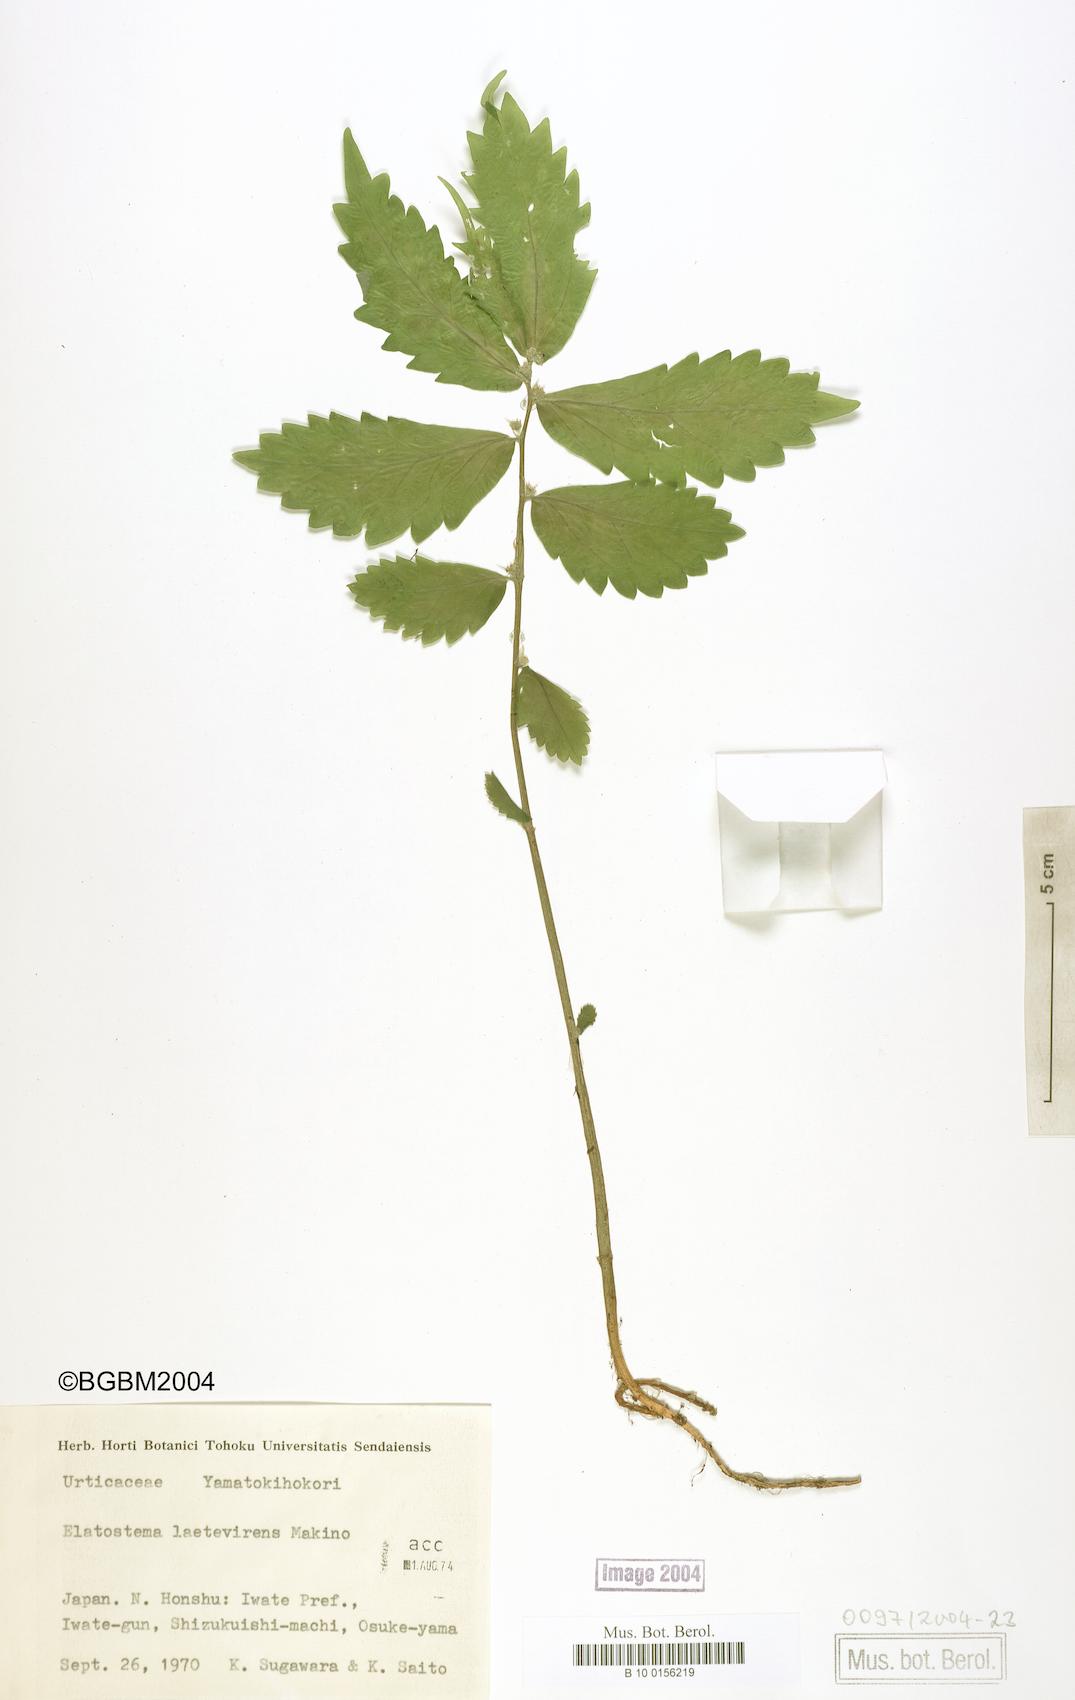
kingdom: Plantae
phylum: Tracheophyta
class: Magnoliopsida
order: Rosales
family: Urticaceae
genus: Elatostema
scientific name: Elatostema laetevirens
